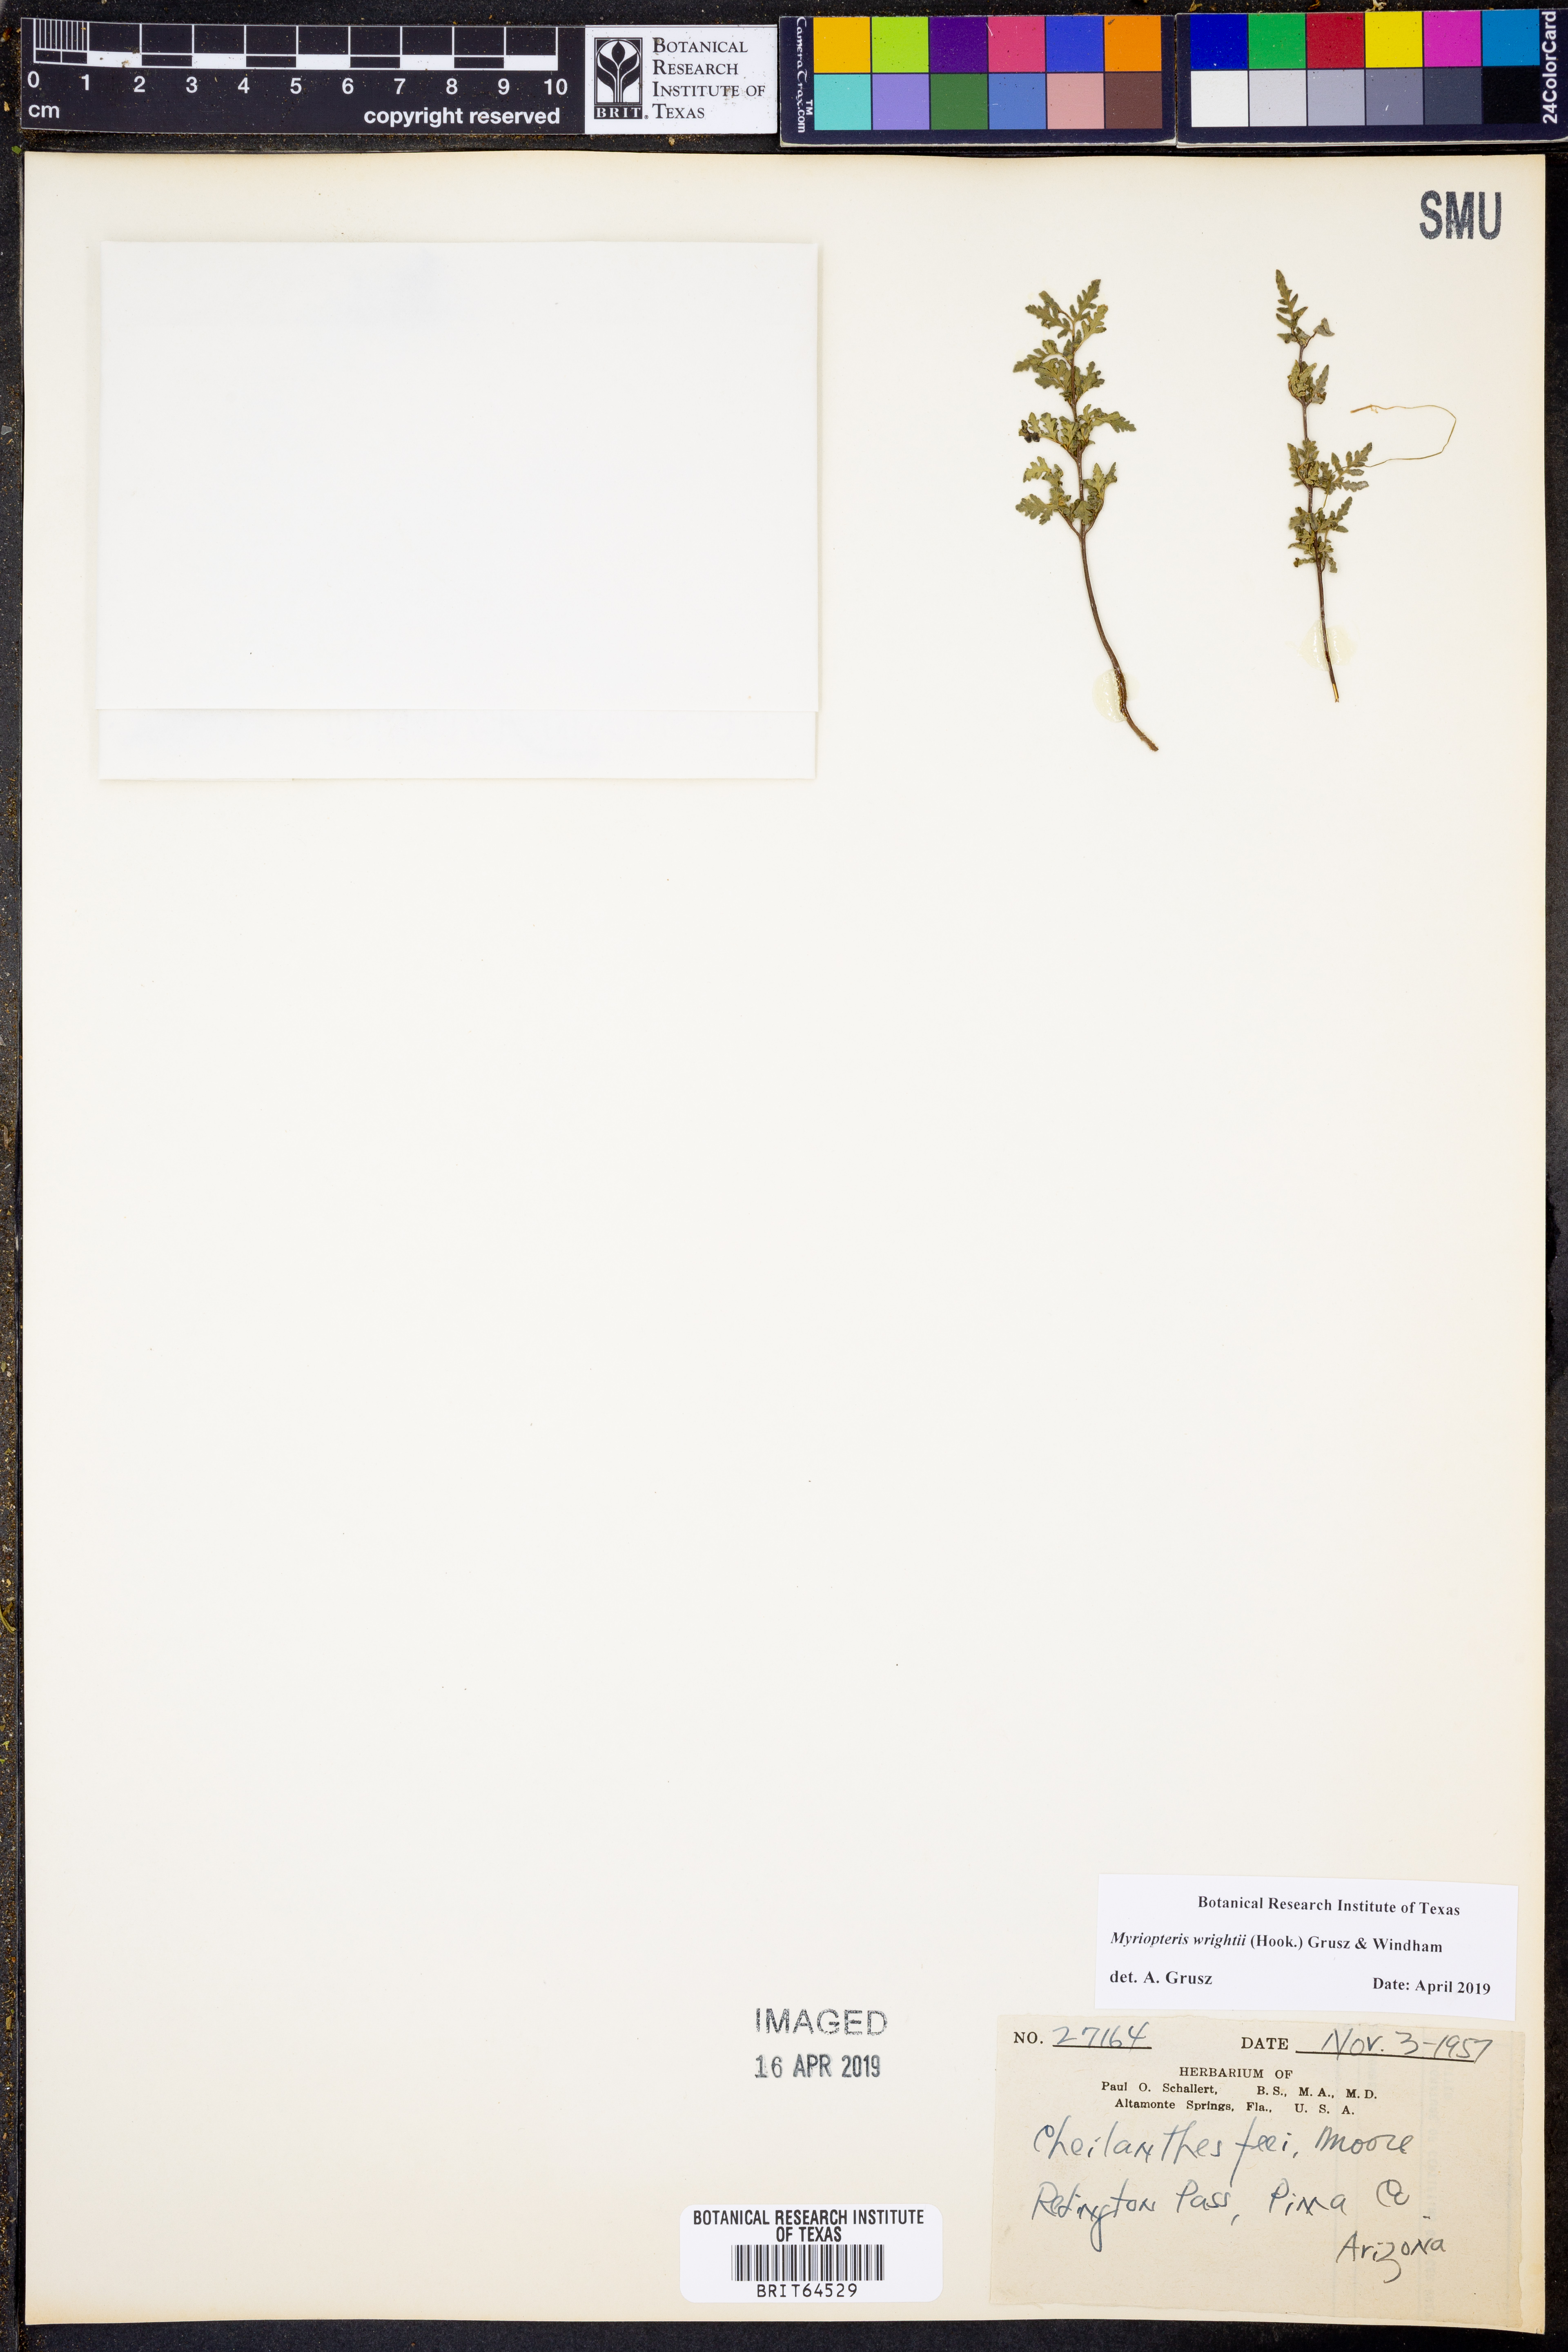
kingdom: Plantae
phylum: Tracheophyta
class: Polypodiopsida
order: Polypodiales
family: Pteridaceae
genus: Myriopteris
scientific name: Myriopteris wrightii
